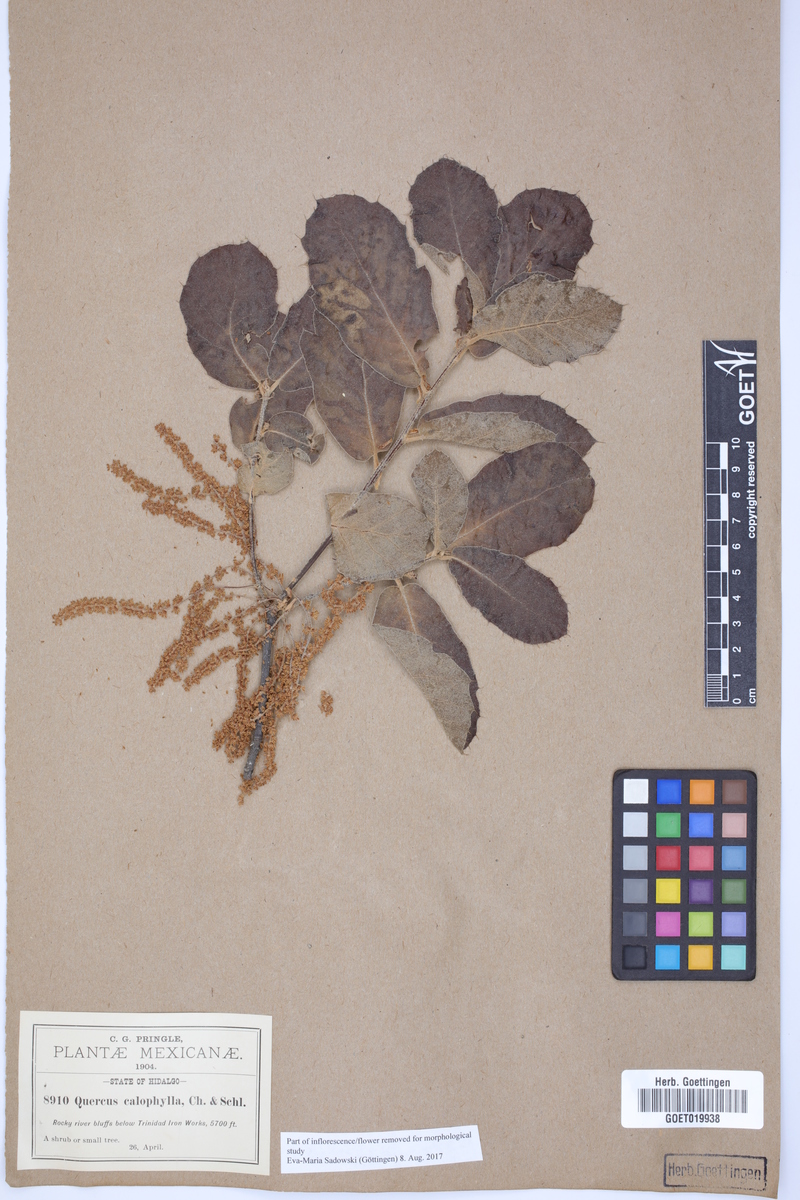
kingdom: Plantae
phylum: Tracheophyta
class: Magnoliopsida
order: Fagales
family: Fagaceae
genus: Quercus
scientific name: Quercus calophylla
